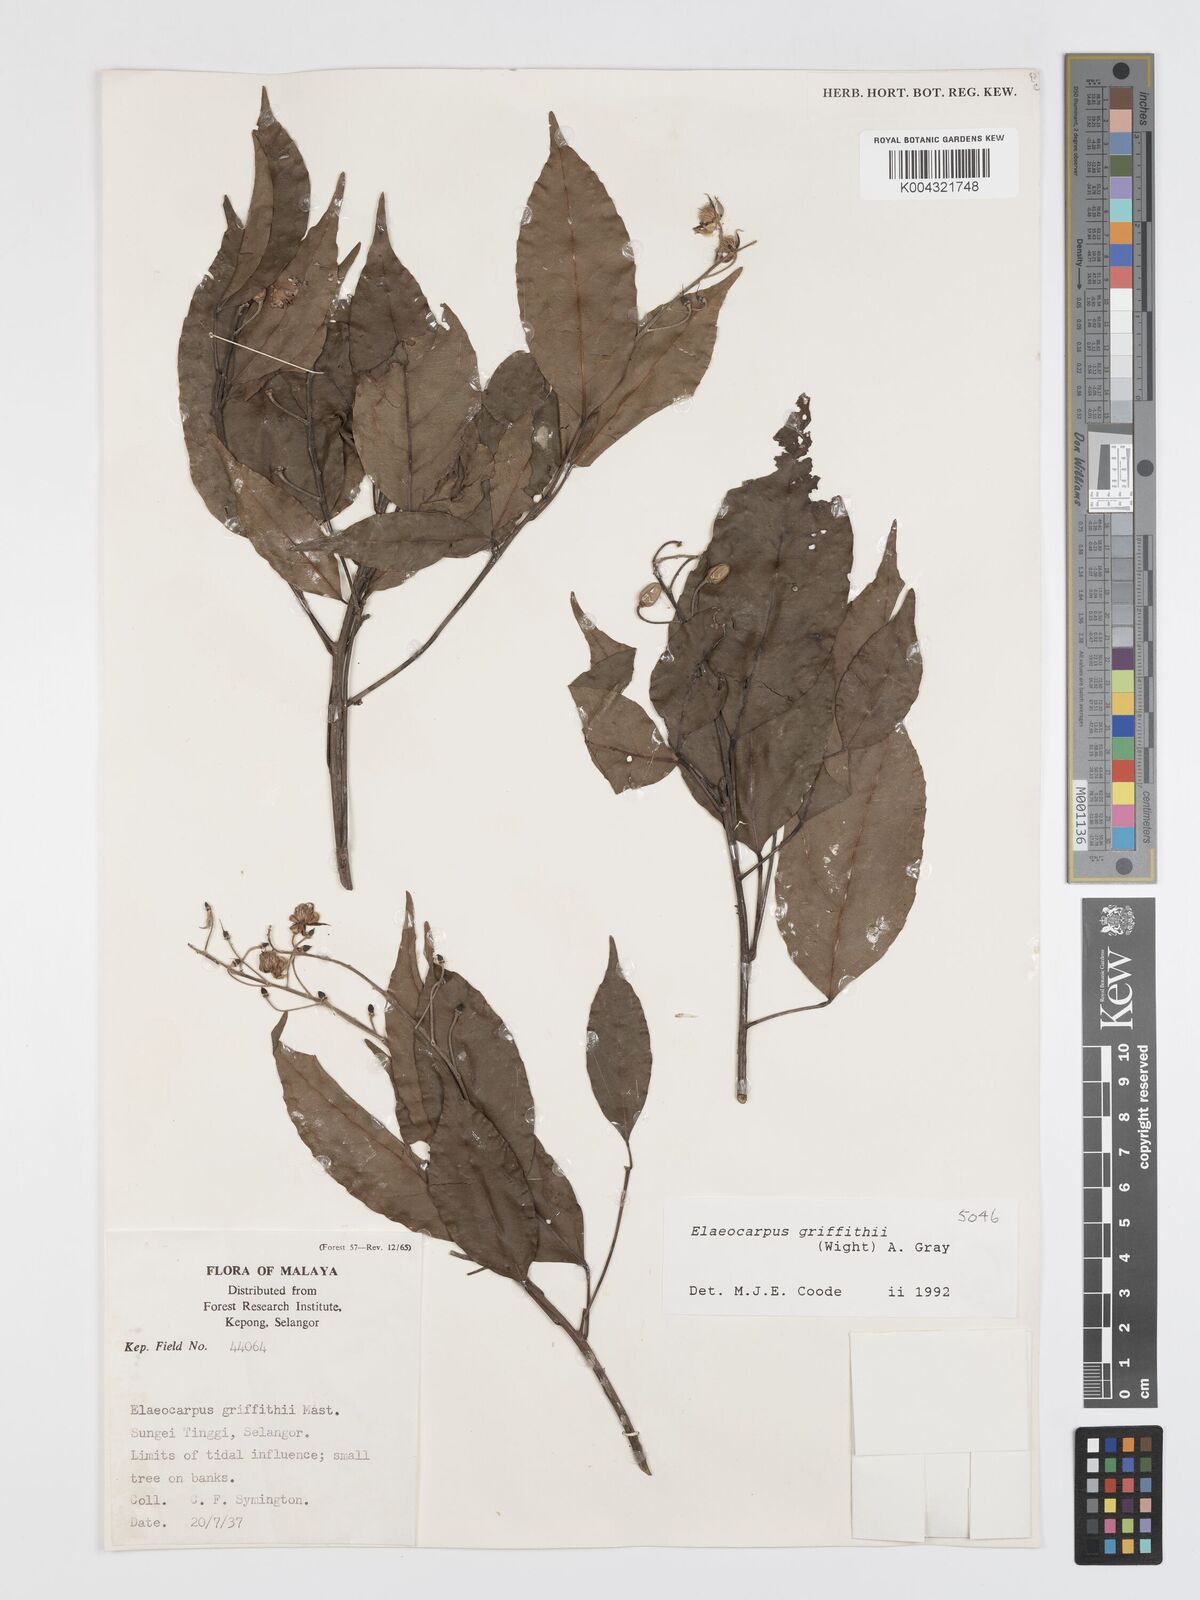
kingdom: Plantae
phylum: Tracheophyta
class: Magnoliopsida
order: Oxalidales
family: Elaeocarpaceae
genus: Elaeocarpus
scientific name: Elaeocarpus griffithii
